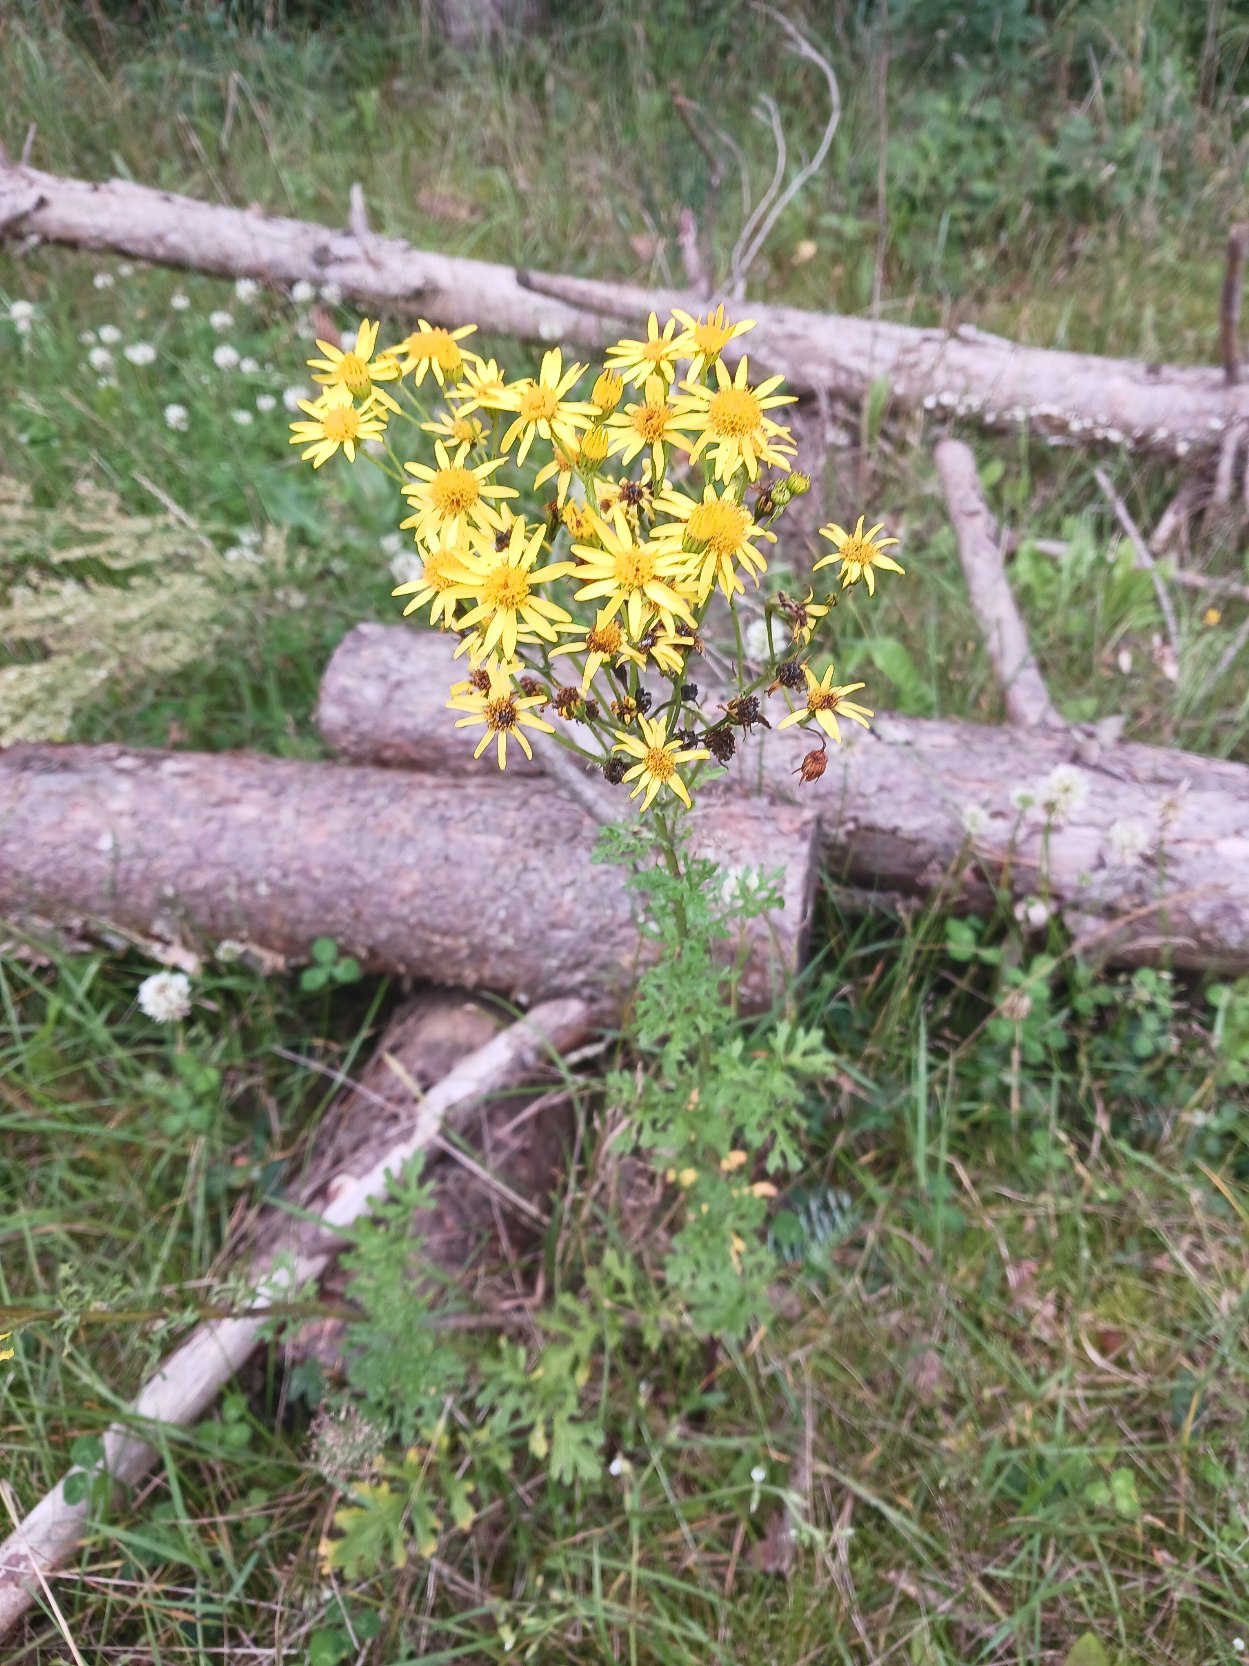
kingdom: Plantae
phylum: Tracheophyta
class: Magnoliopsida
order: Asterales
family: Asteraceae
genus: Jacobaea
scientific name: Jacobaea vulgaris
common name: Eng-brandbæger
